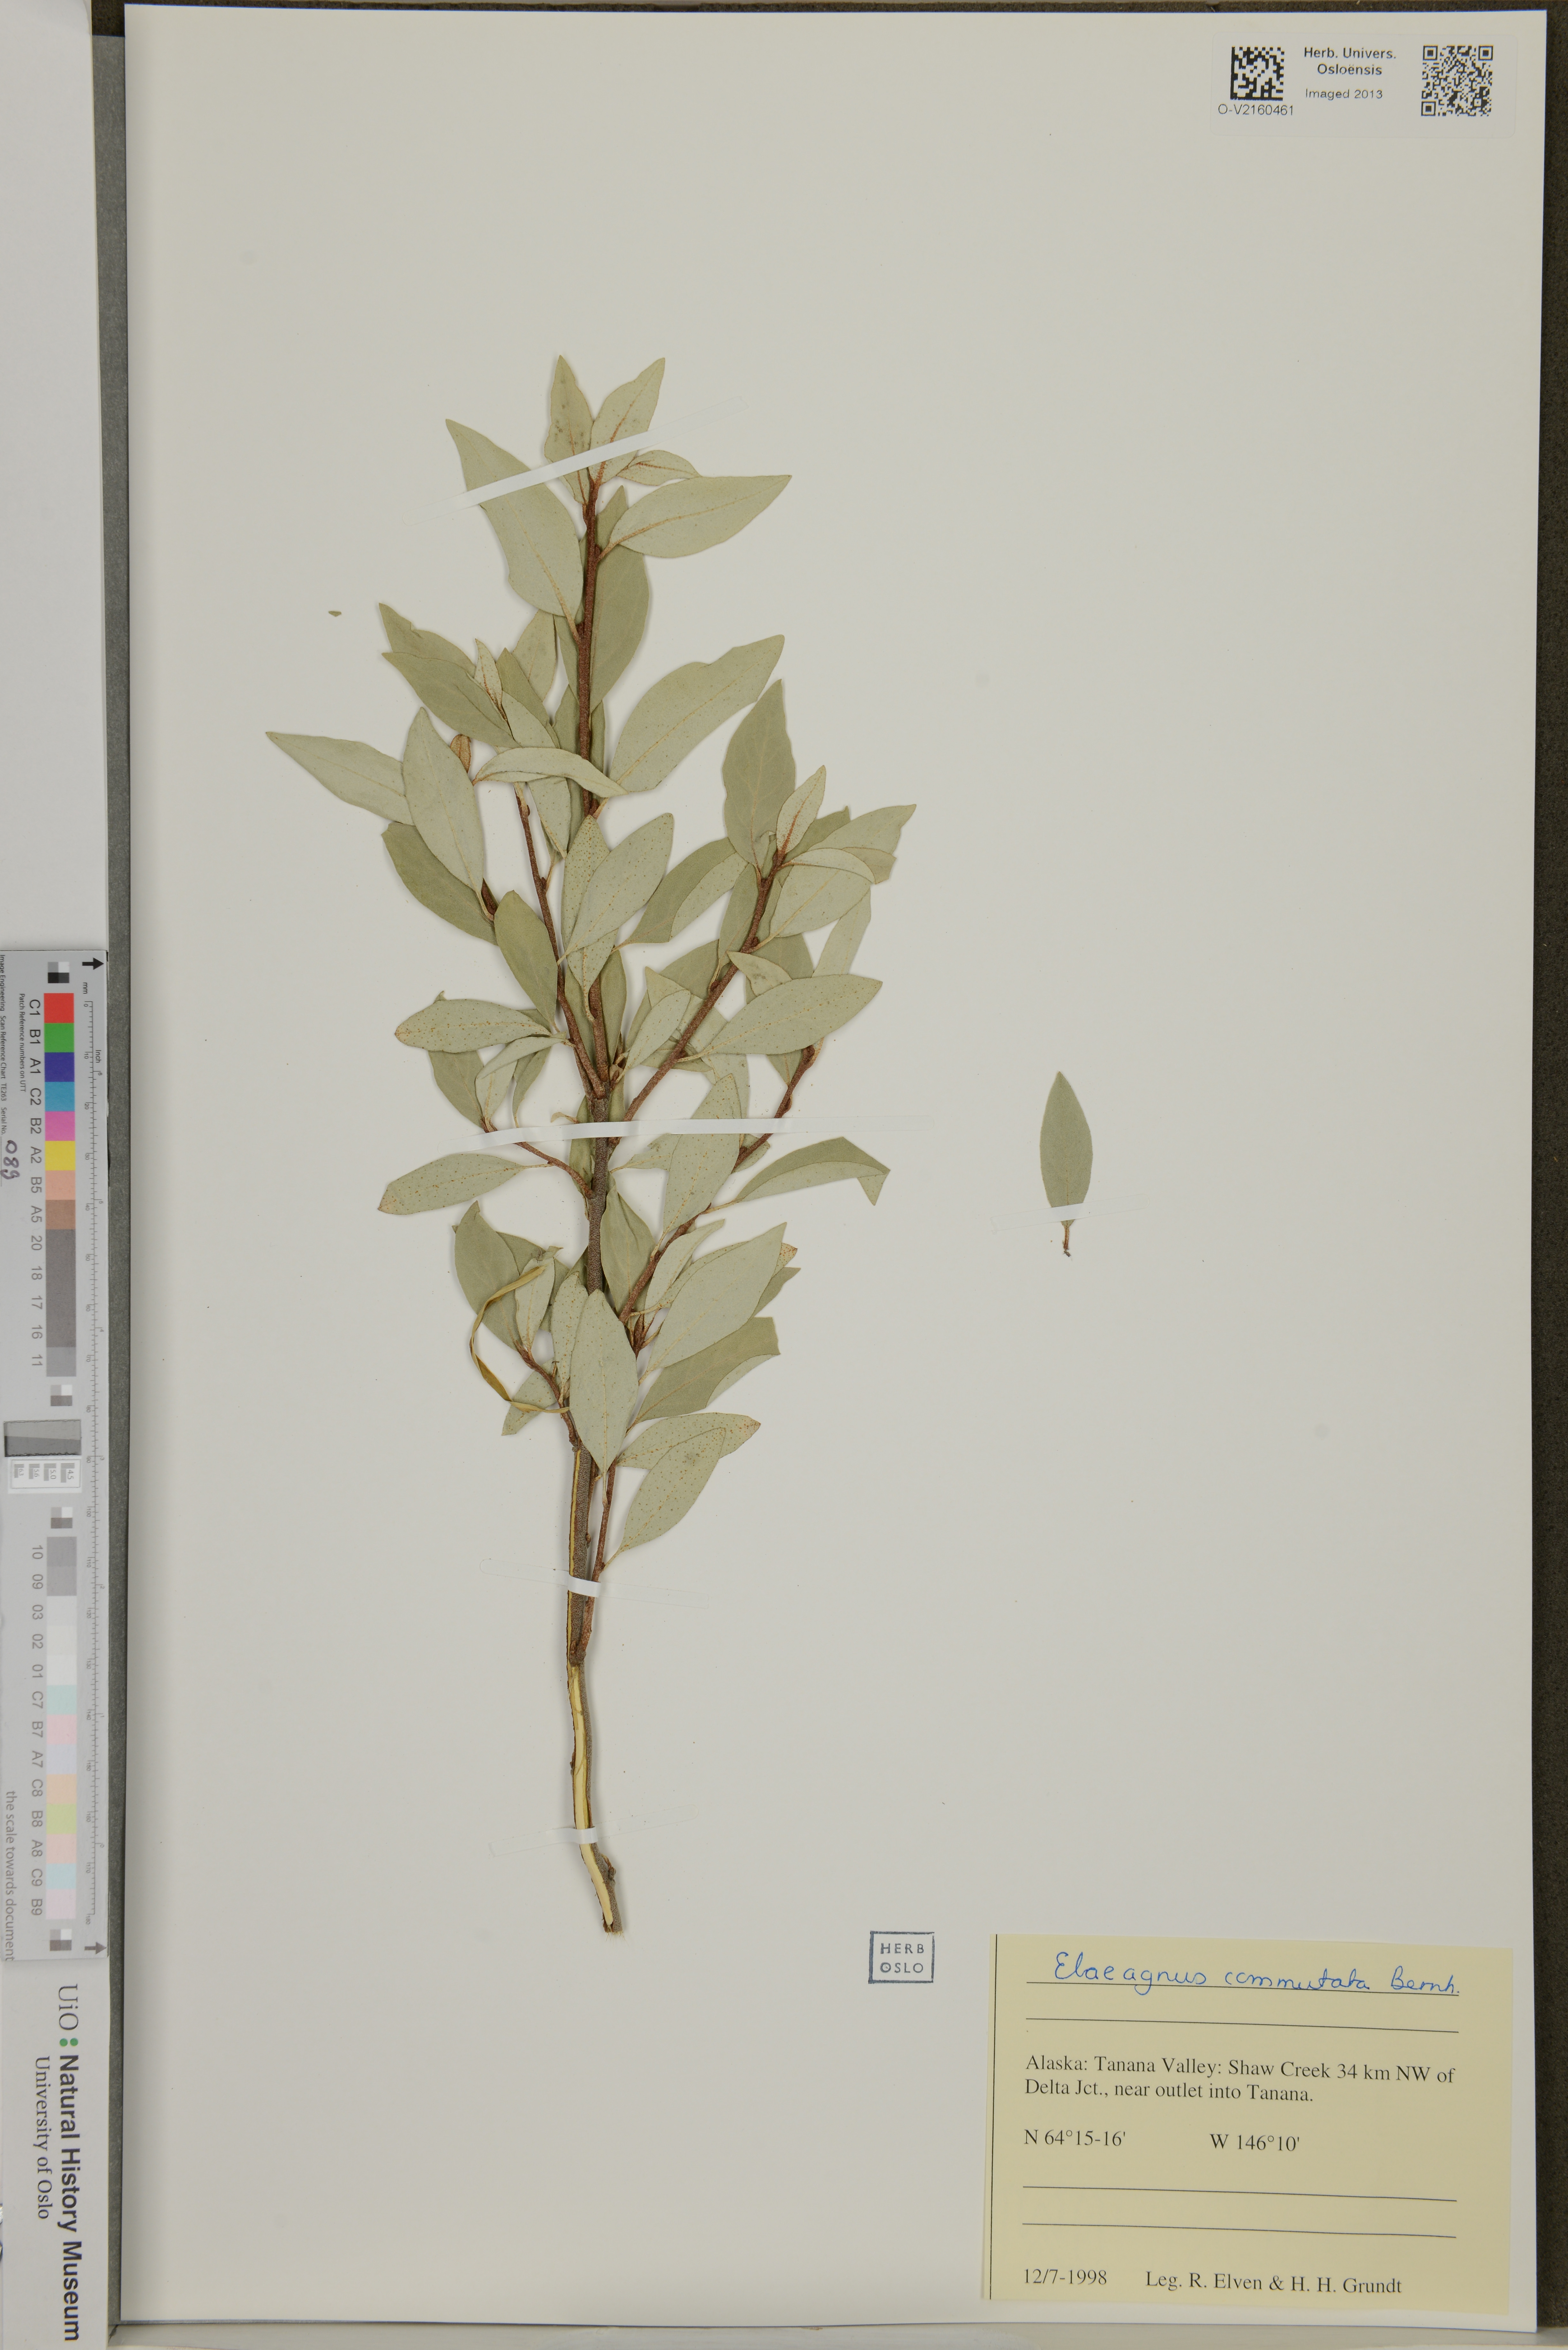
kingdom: Plantae
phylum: Tracheophyta
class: Magnoliopsida
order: Rosales
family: Elaeagnaceae
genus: Elaeagnus
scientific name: Elaeagnus commutata
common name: Silverberry
